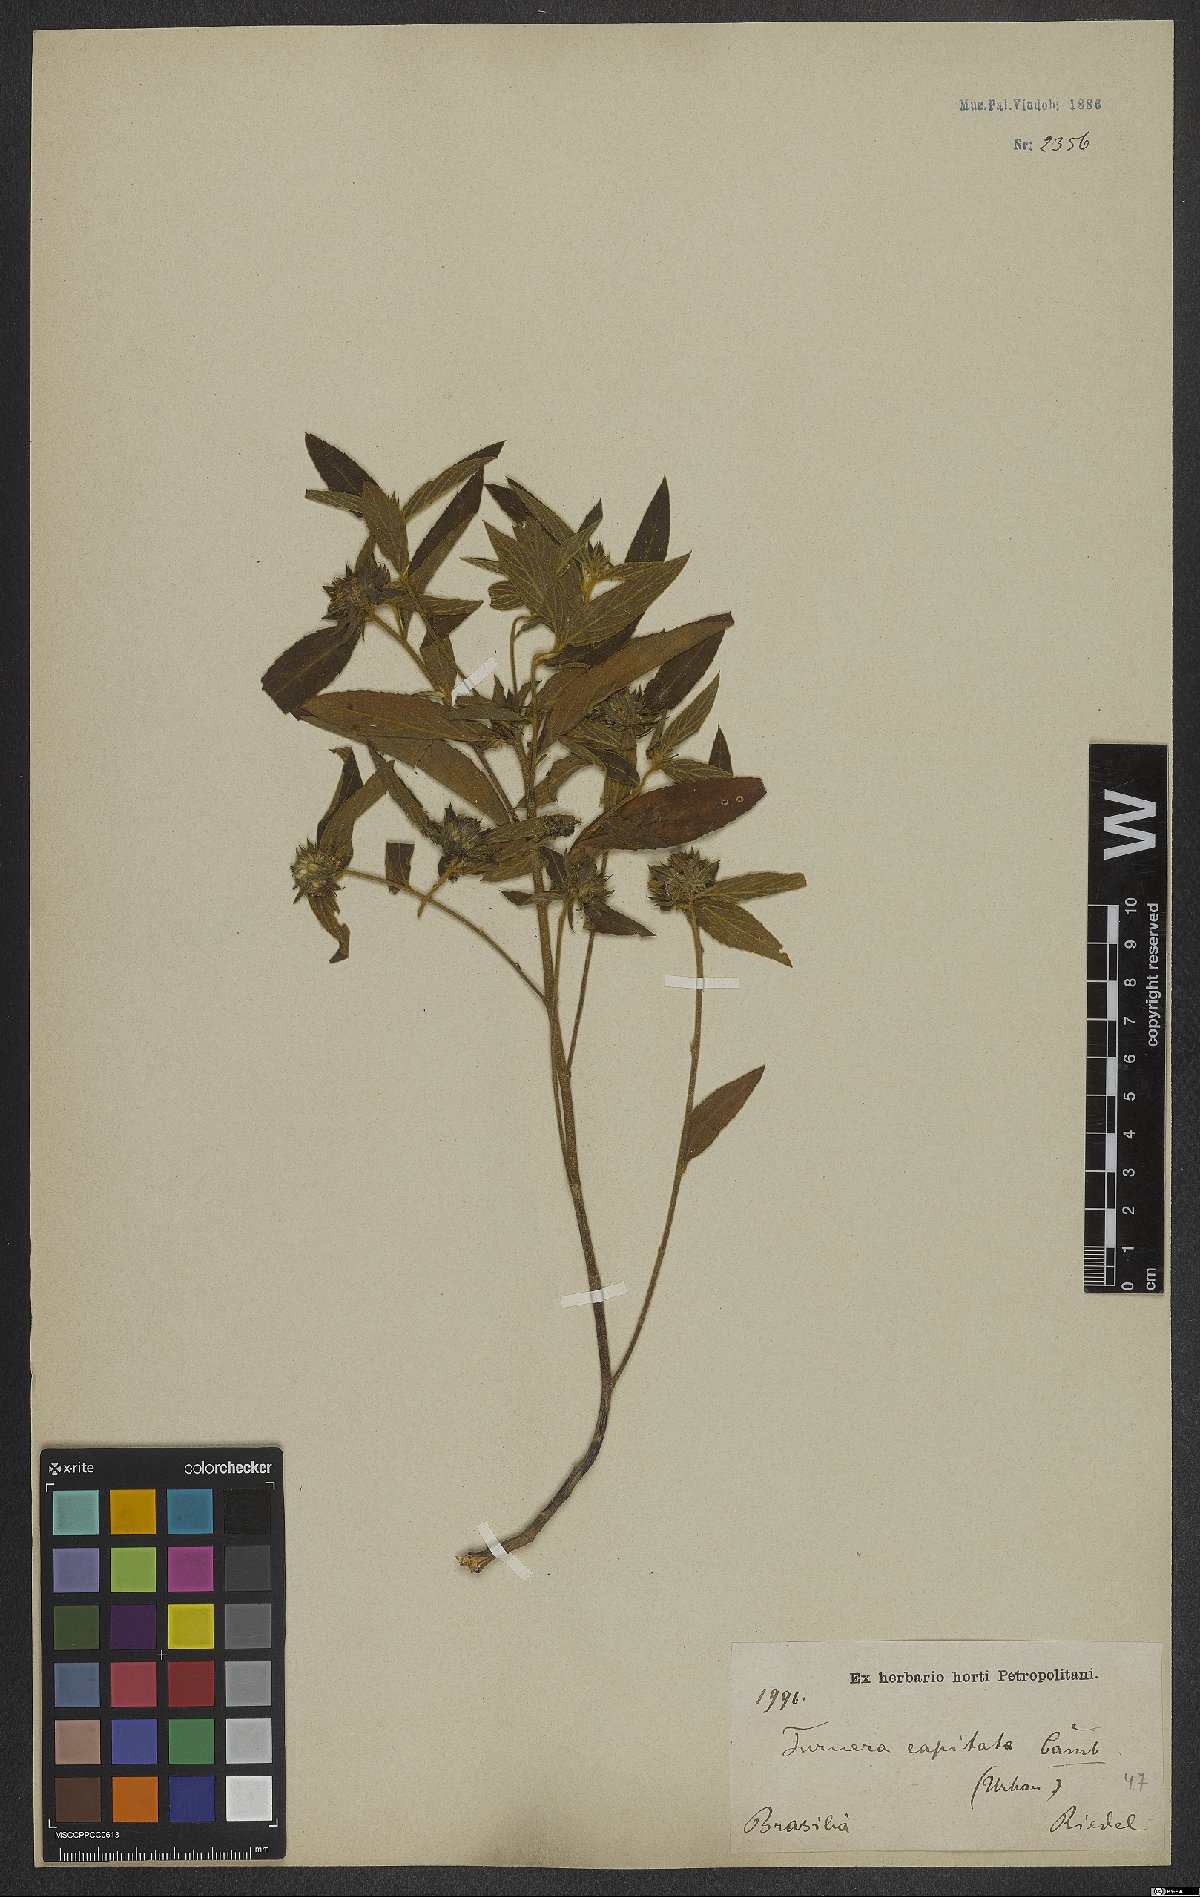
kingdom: Plantae
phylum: Tracheophyta
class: Magnoliopsida
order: Malpighiales
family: Turneraceae
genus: Oxossia
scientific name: Oxossia capitata
